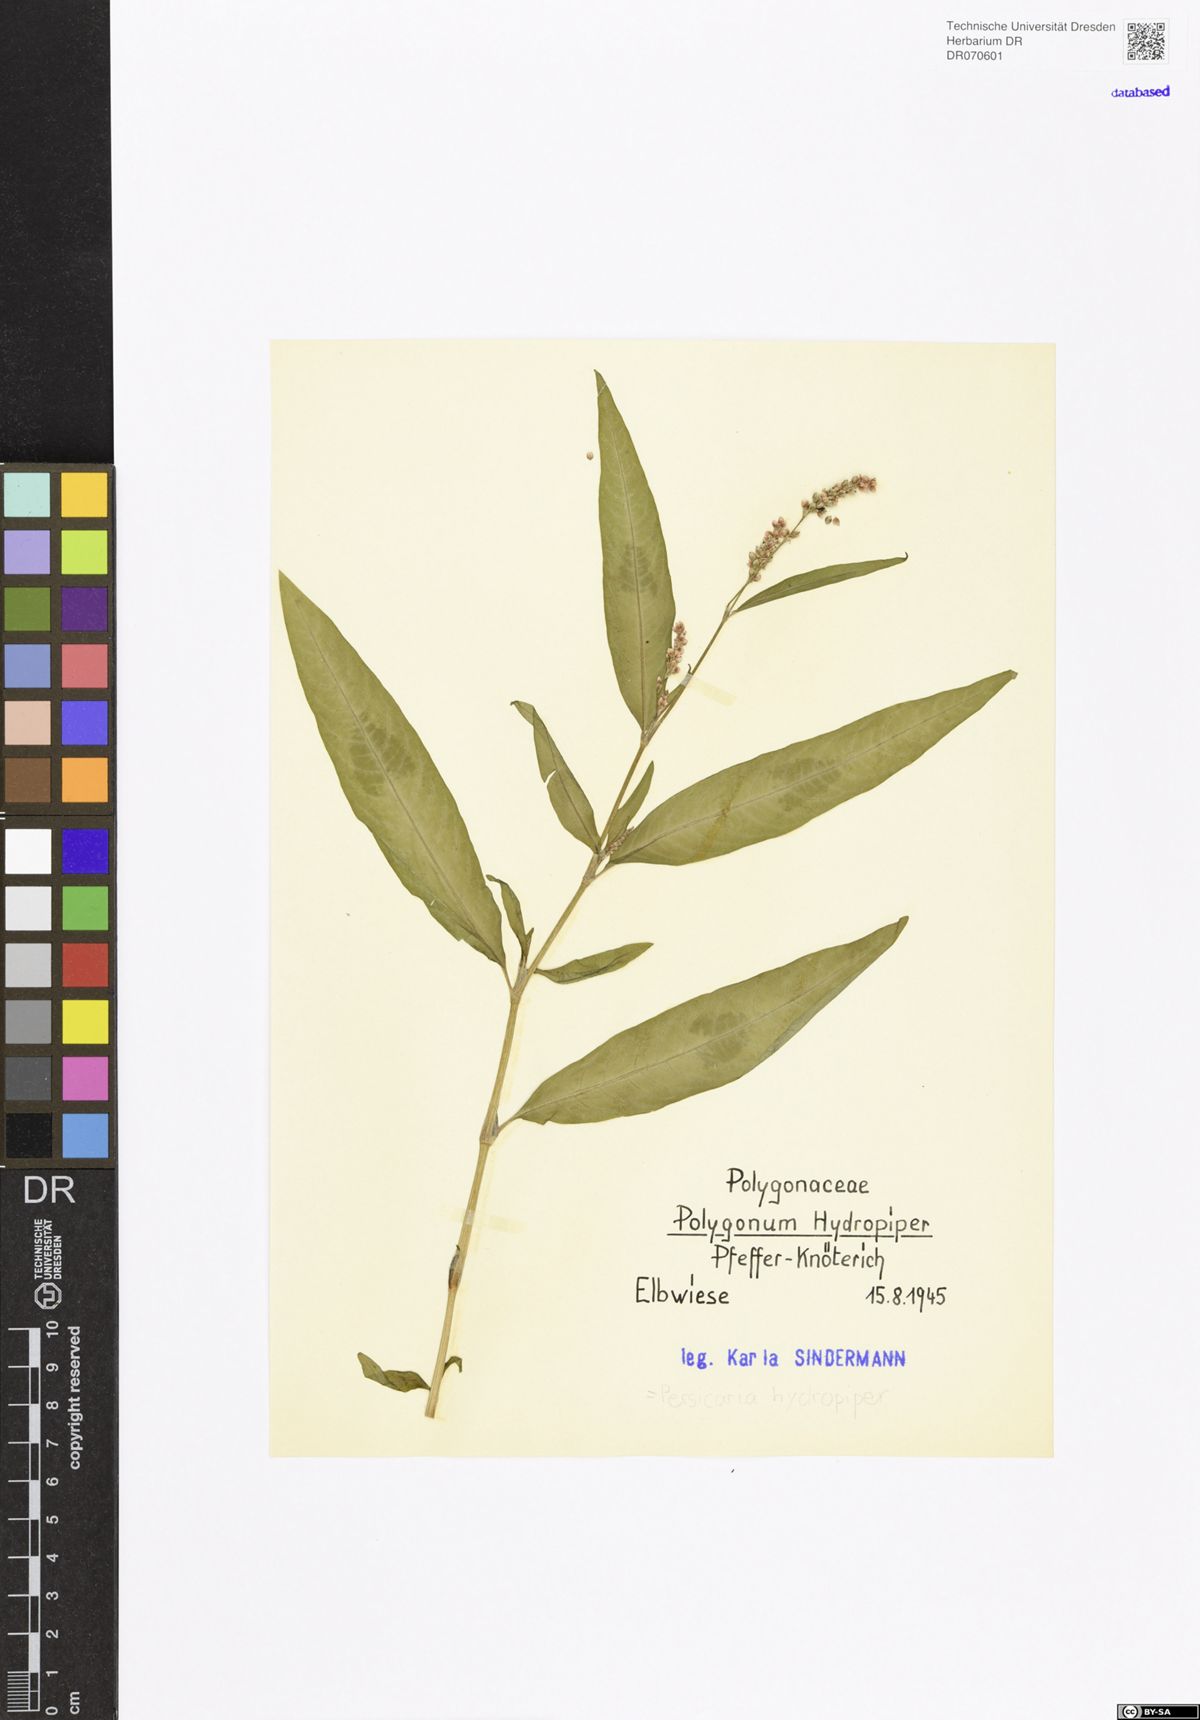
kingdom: Plantae
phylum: Tracheophyta
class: Magnoliopsida
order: Caryophyllales
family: Polygonaceae
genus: Persicaria
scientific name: Persicaria hydropiper
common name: Water-pepper
